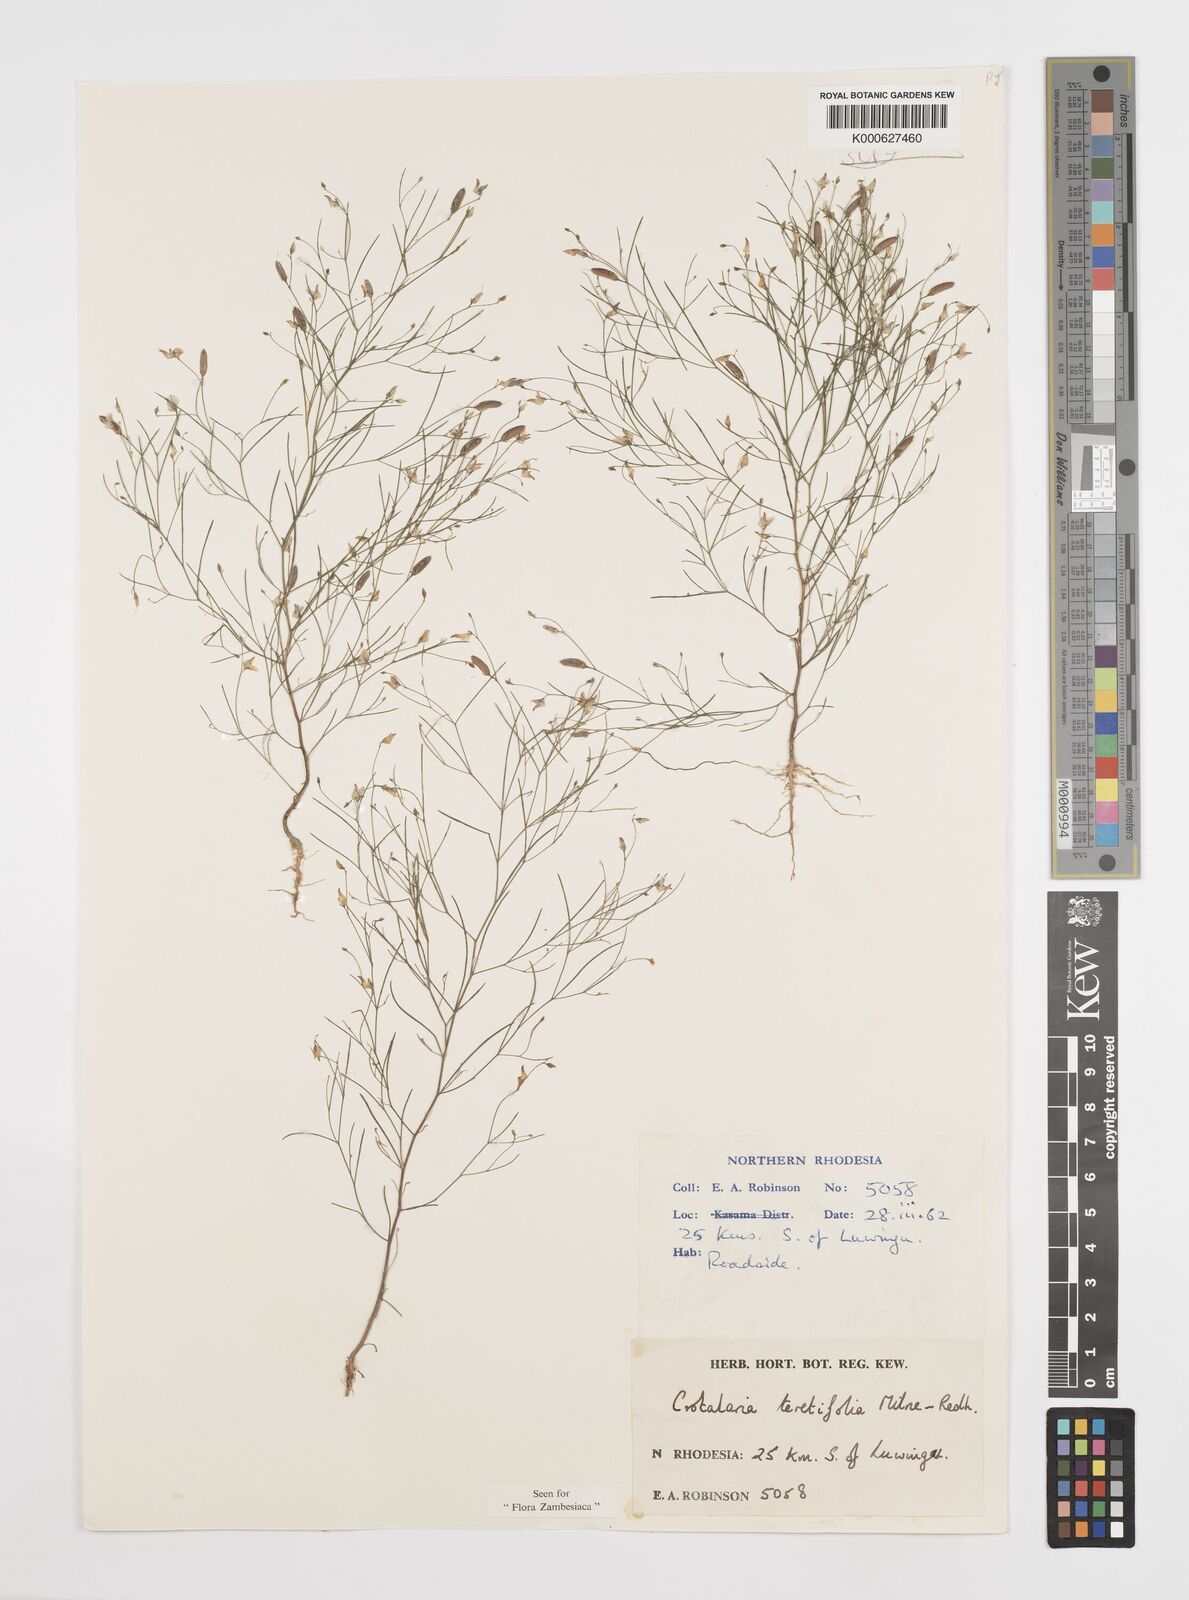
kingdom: Plantae
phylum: Tracheophyta
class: Magnoliopsida
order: Fabales
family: Fabaceae
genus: Crotalaria
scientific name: Crotalaria teretifolia
